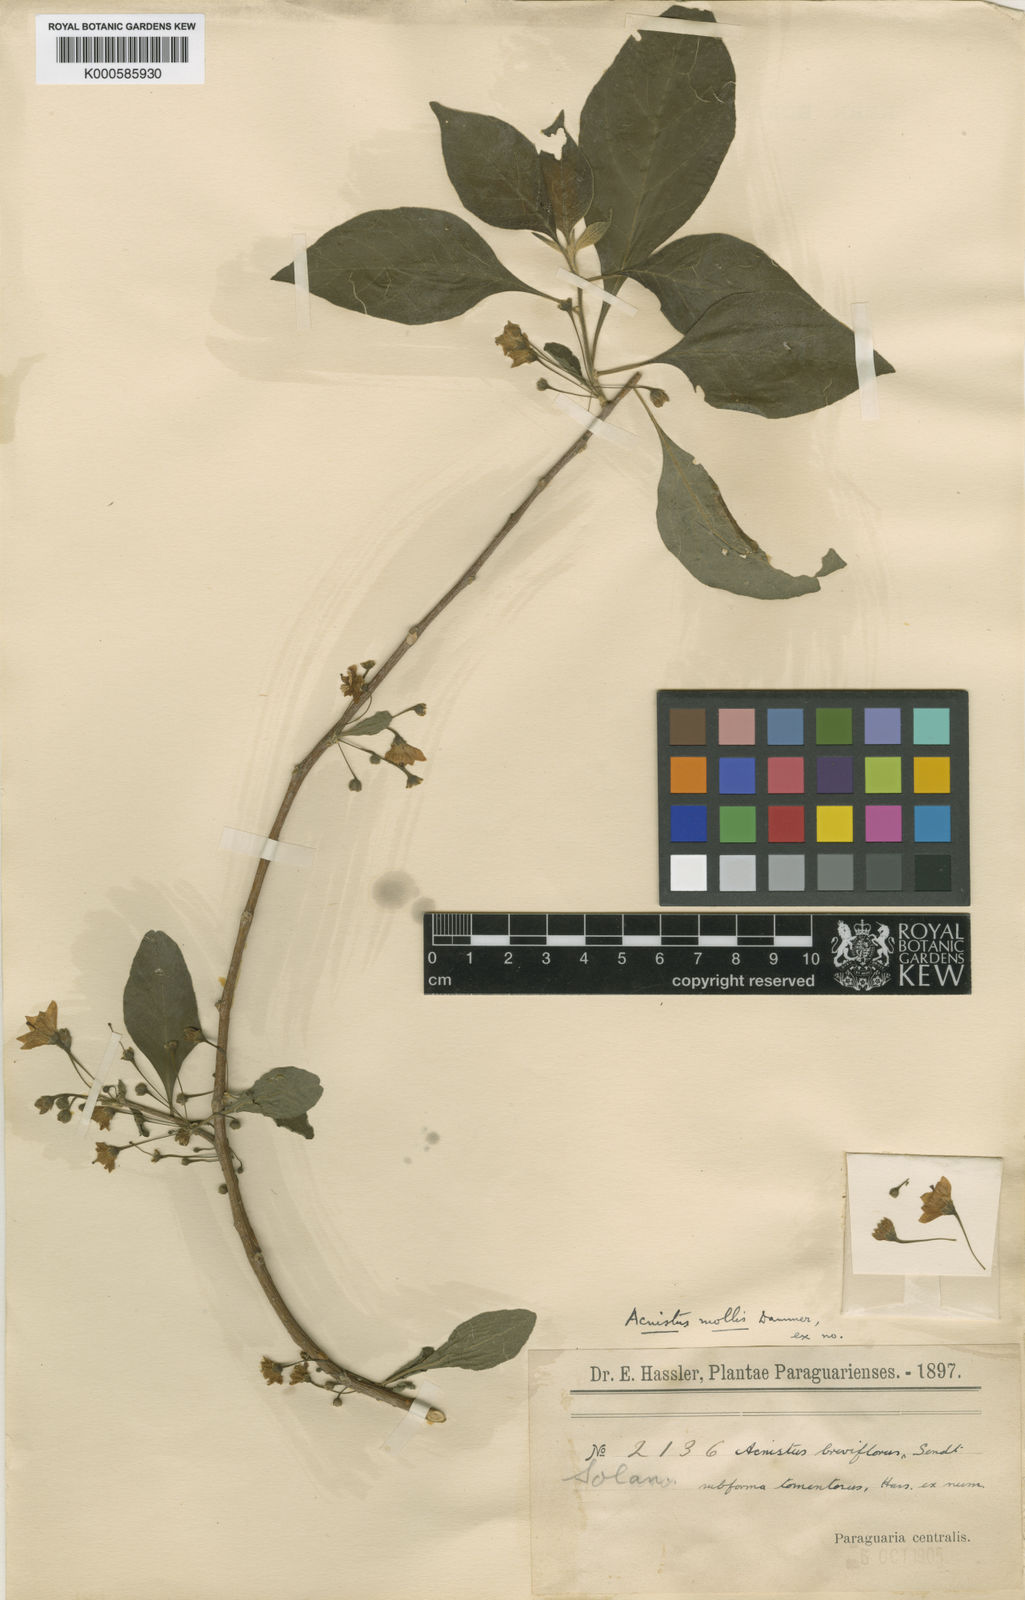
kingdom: Plantae
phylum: Tracheophyta
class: Magnoliopsida
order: Solanales
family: Solanaceae
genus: Vassobia
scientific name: Vassobia breviflora
